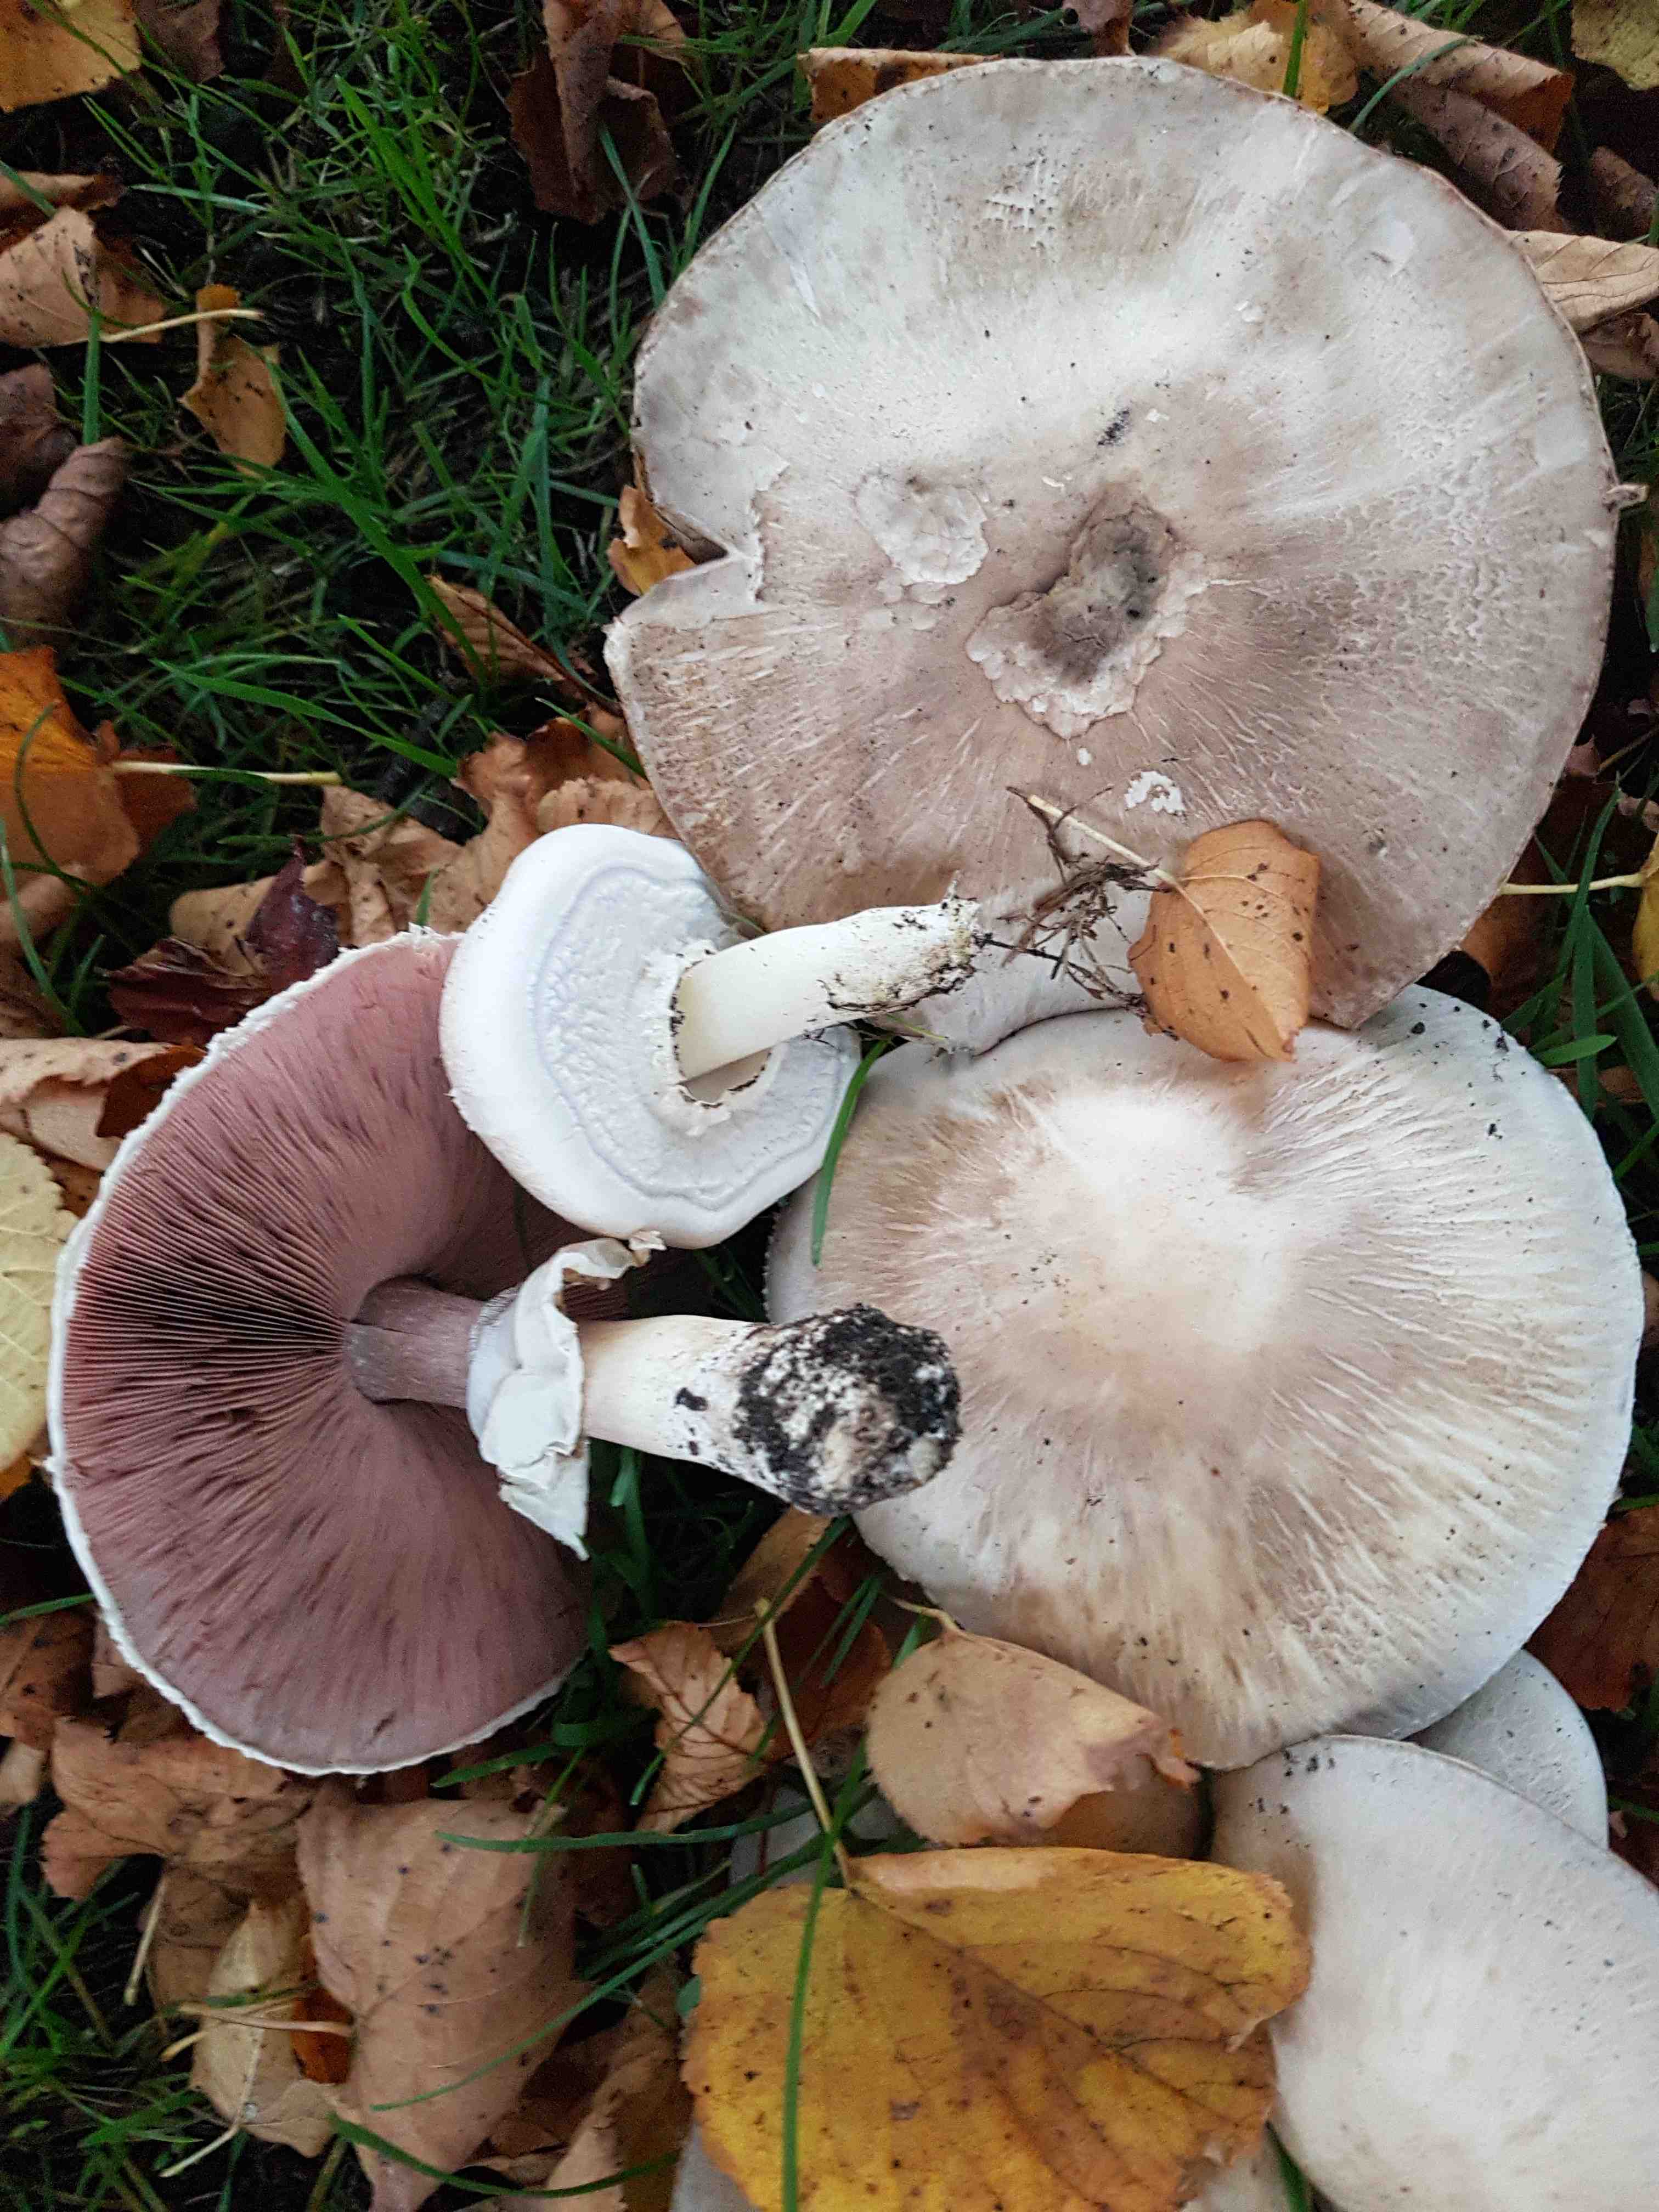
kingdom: Fungi
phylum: Basidiomycota
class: Agaricomycetes
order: Agaricales
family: Agaricaceae
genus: Agaricus
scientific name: Agaricus xanthodermus
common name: karbol-champignon
